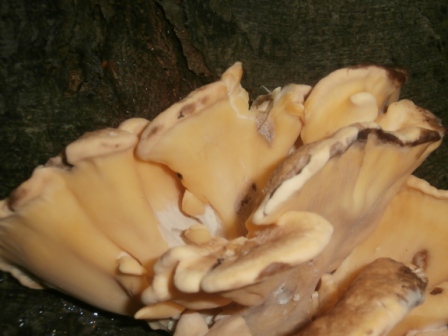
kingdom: Fungi
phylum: Basidiomycota
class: Agaricomycetes
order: Polyporales
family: Meripilaceae
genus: Meripilus
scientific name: Meripilus giganteus
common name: kæmpeporesvamp
